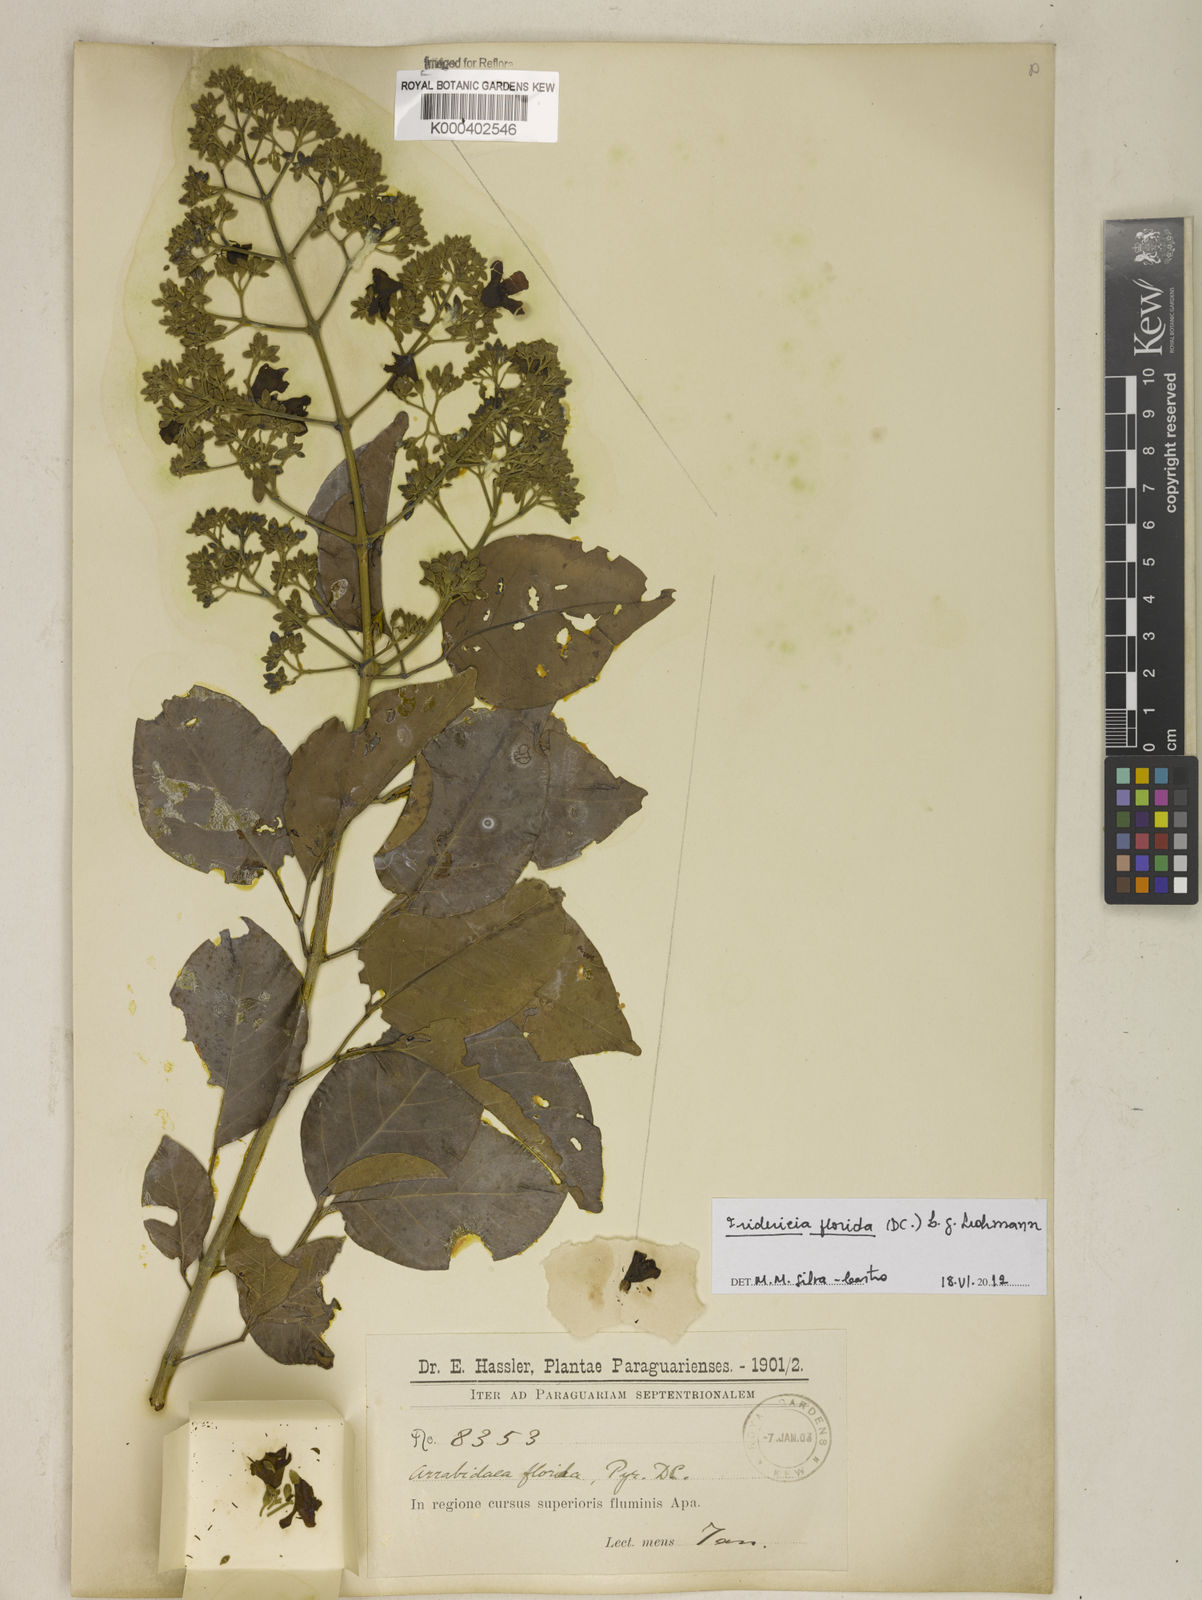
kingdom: Plantae
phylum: Tracheophyta
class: Magnoliopsida
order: Lamiales
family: Bignoniaceae
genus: Fridericia
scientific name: Fridericia florida
